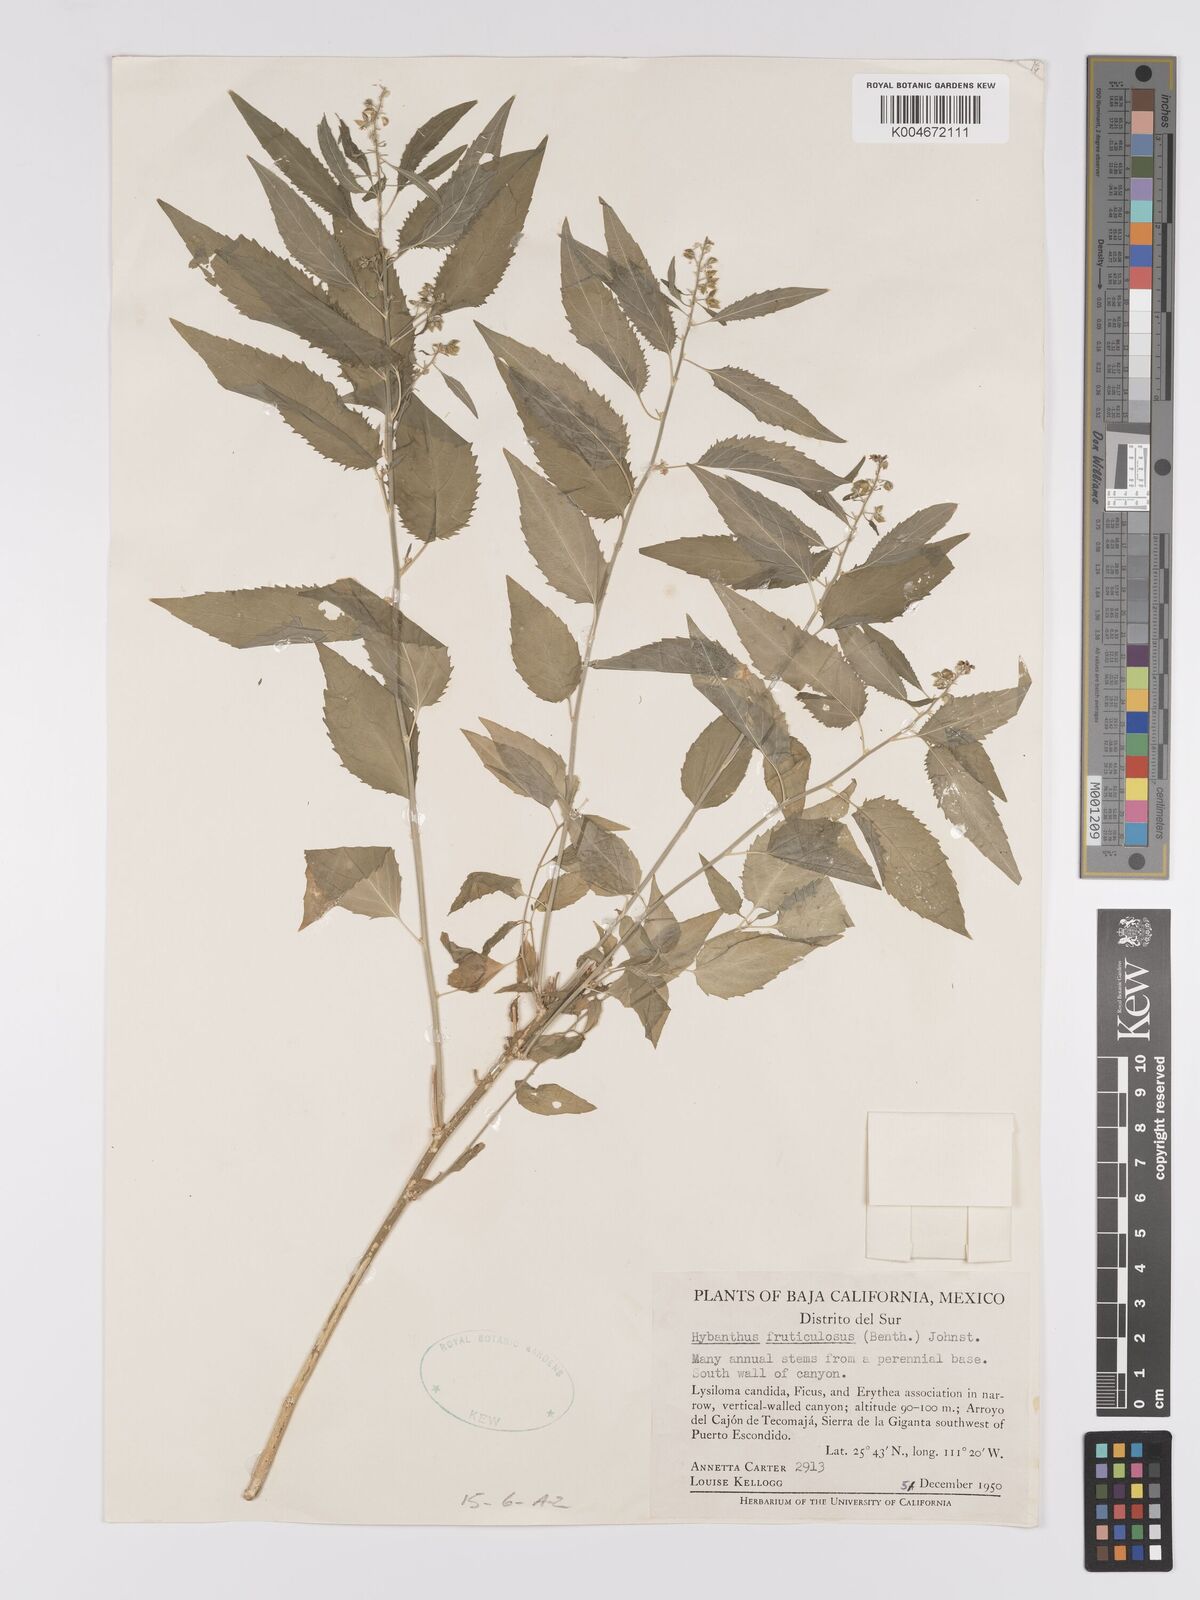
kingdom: Plantae
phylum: Tracheophyta
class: Magnoliopsida
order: Malpighiales
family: Violaceae
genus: Hybanthus
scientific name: Hybanthus fruticulosus
